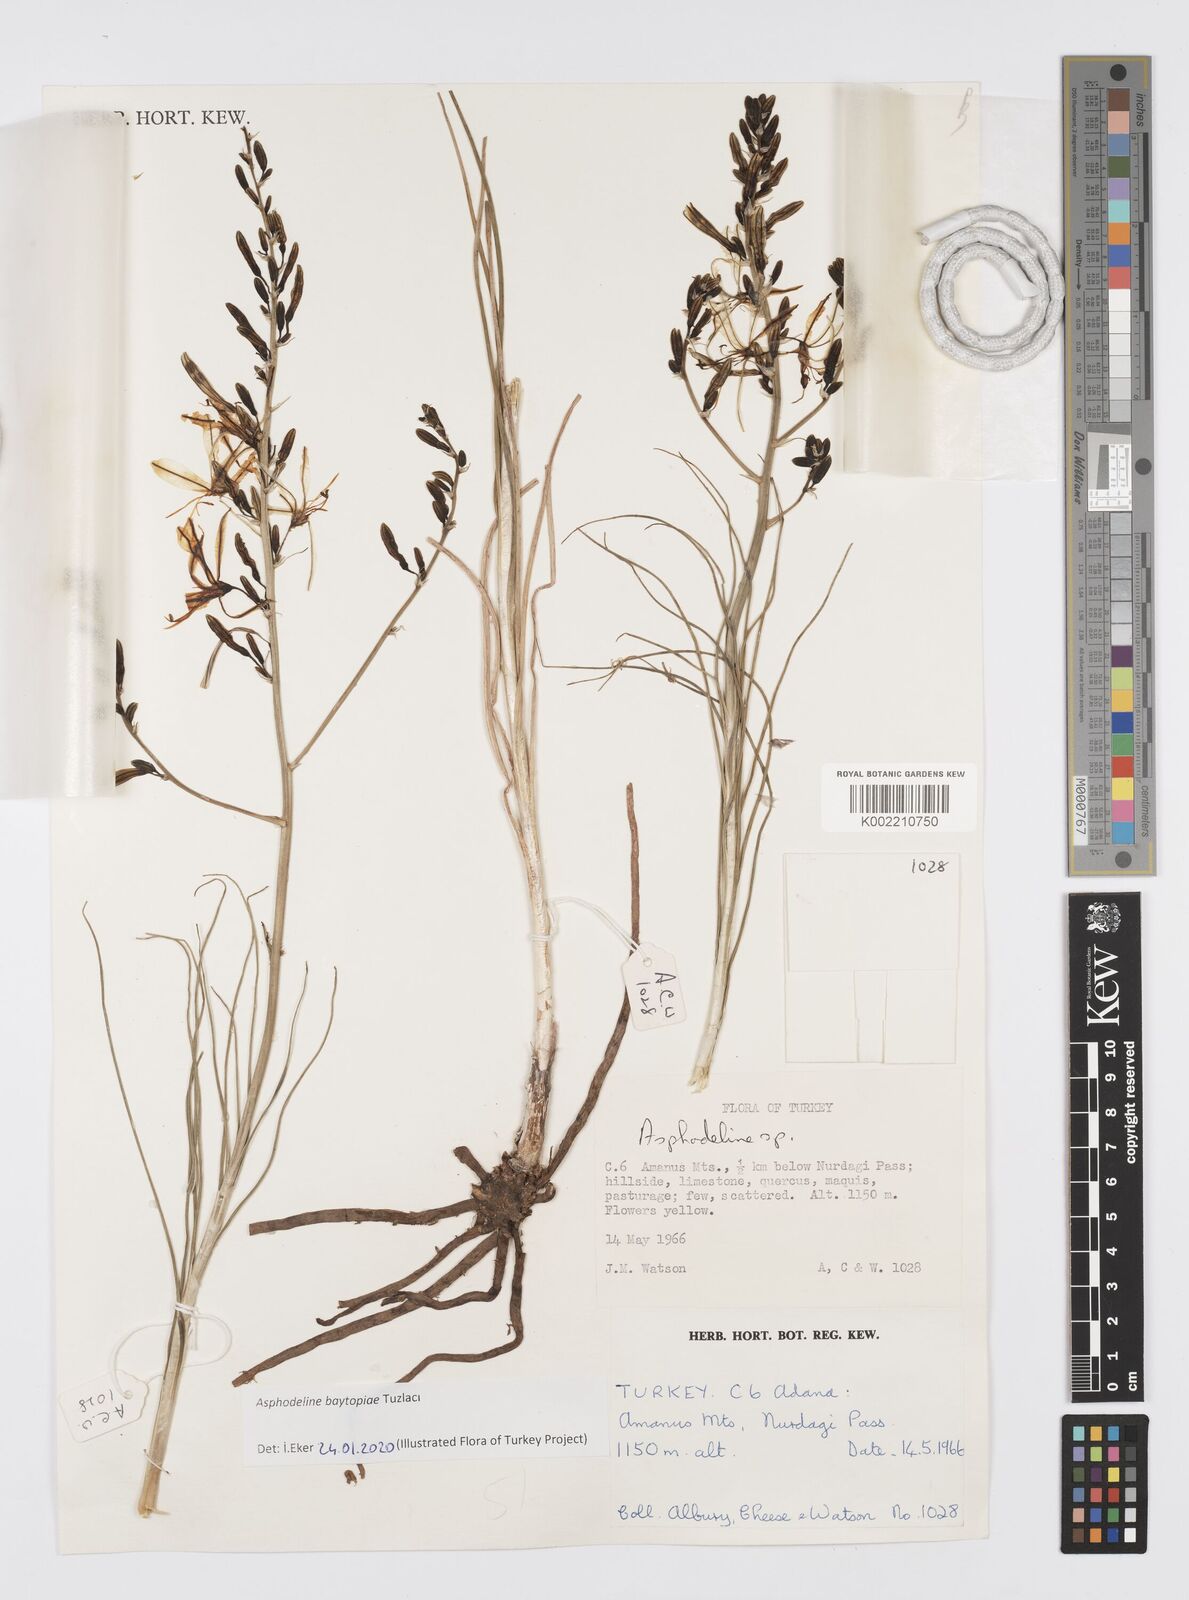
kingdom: Plantae
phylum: Tracheophyta
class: Liliopsida
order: Asparagales
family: Asphodelaceae
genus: Asphodeline
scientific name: Asphodeline baytopiae
